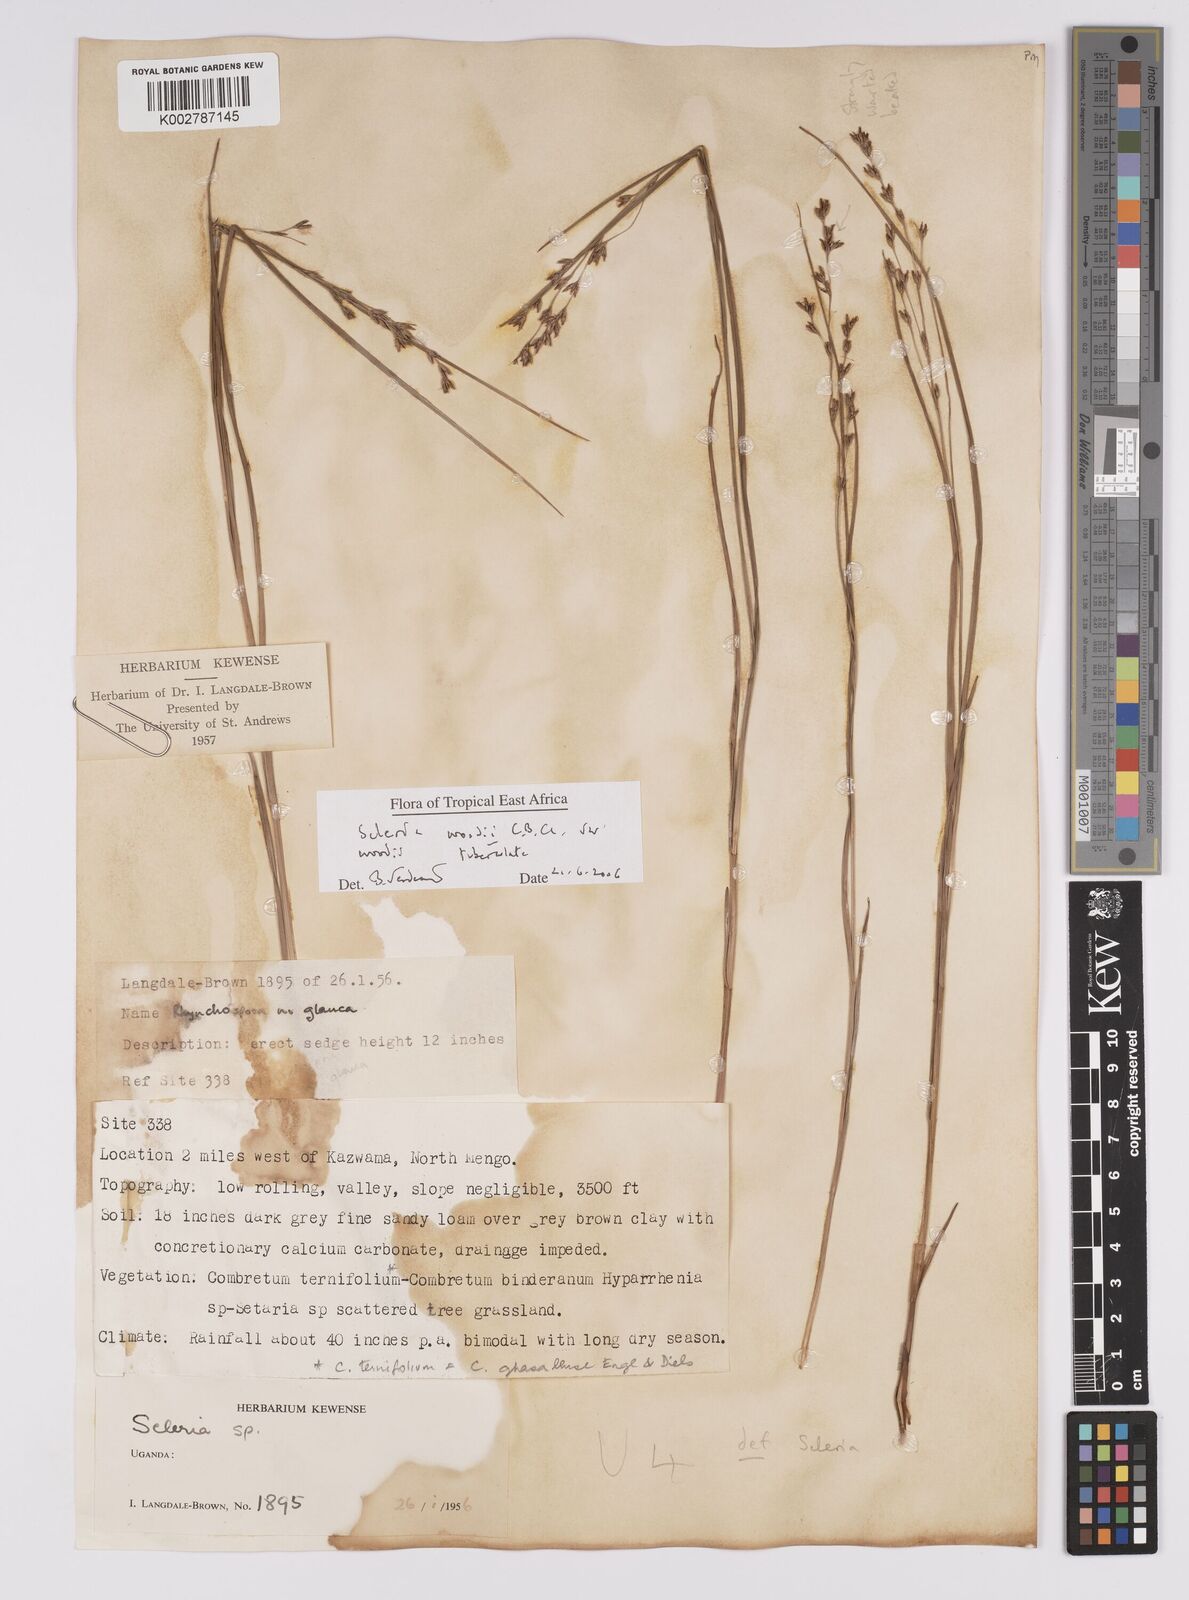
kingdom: Plantae
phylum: Tracheophyta
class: Liliopsida
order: Poales
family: Cyperaceae
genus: Scleria
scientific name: Scleria woodii
